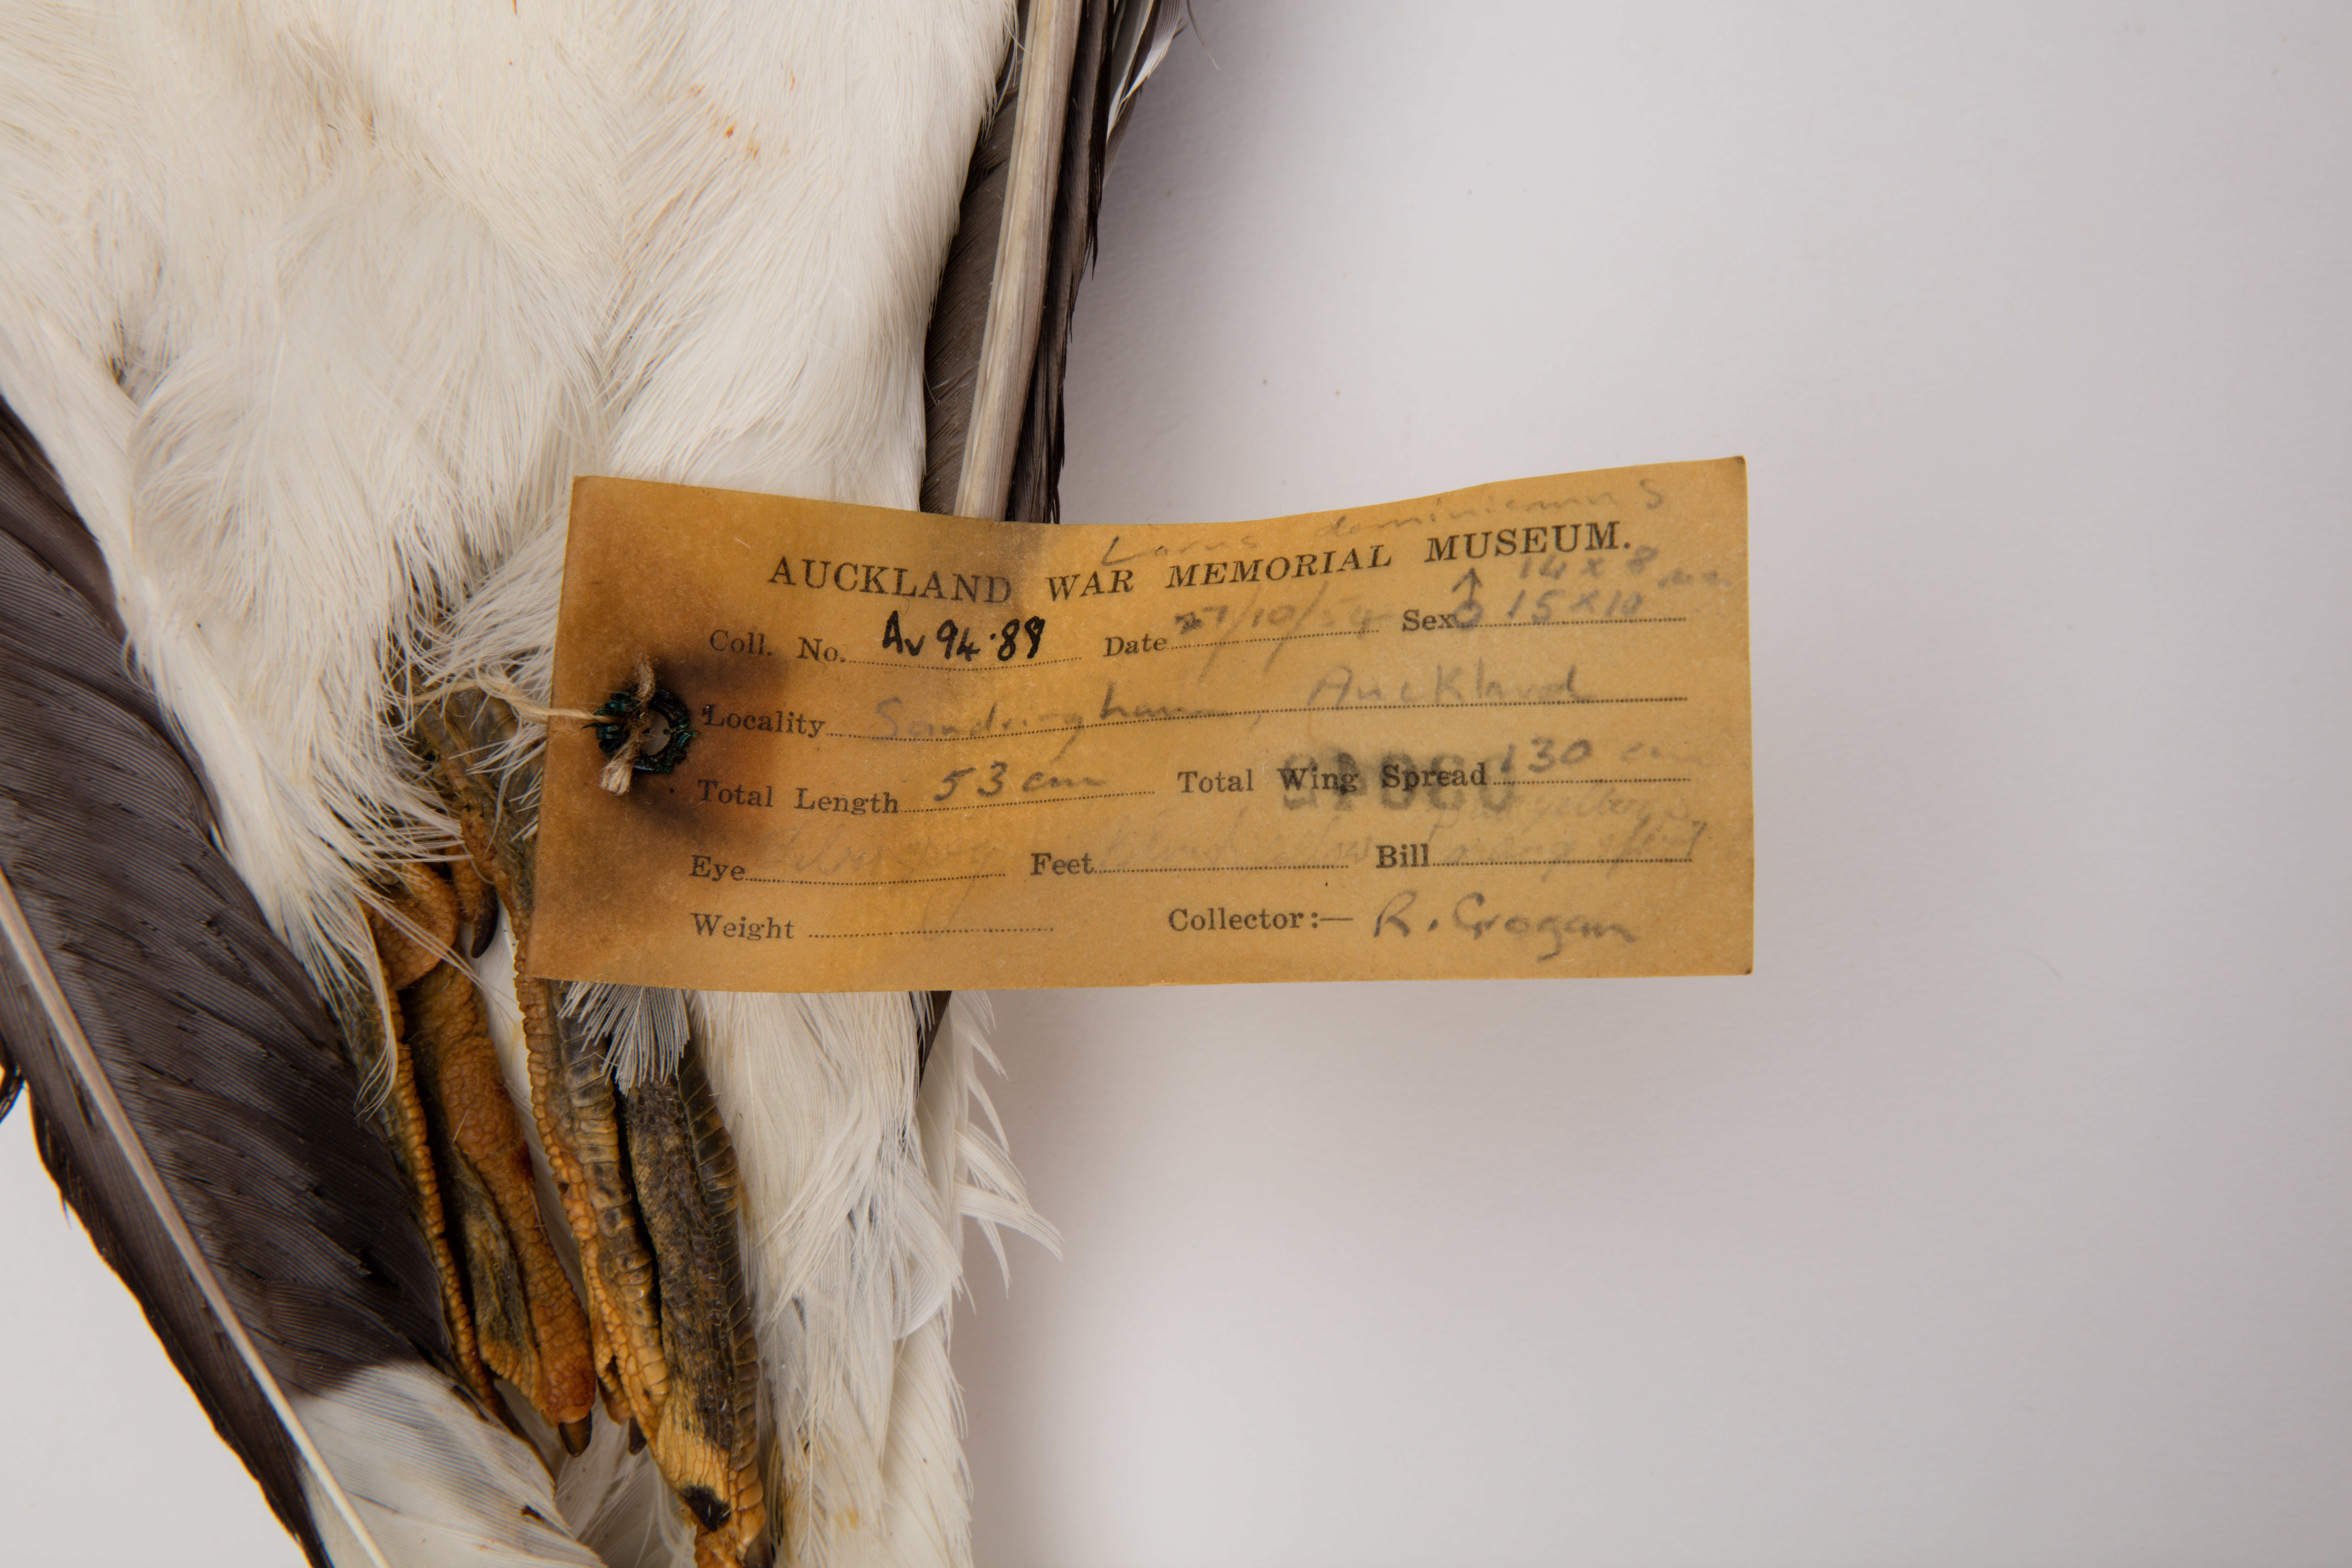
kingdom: Animalia
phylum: Chordata
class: Aves
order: Charadriiformes
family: Laridae
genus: Larus
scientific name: Larus dominicanus
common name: Kelp gull
